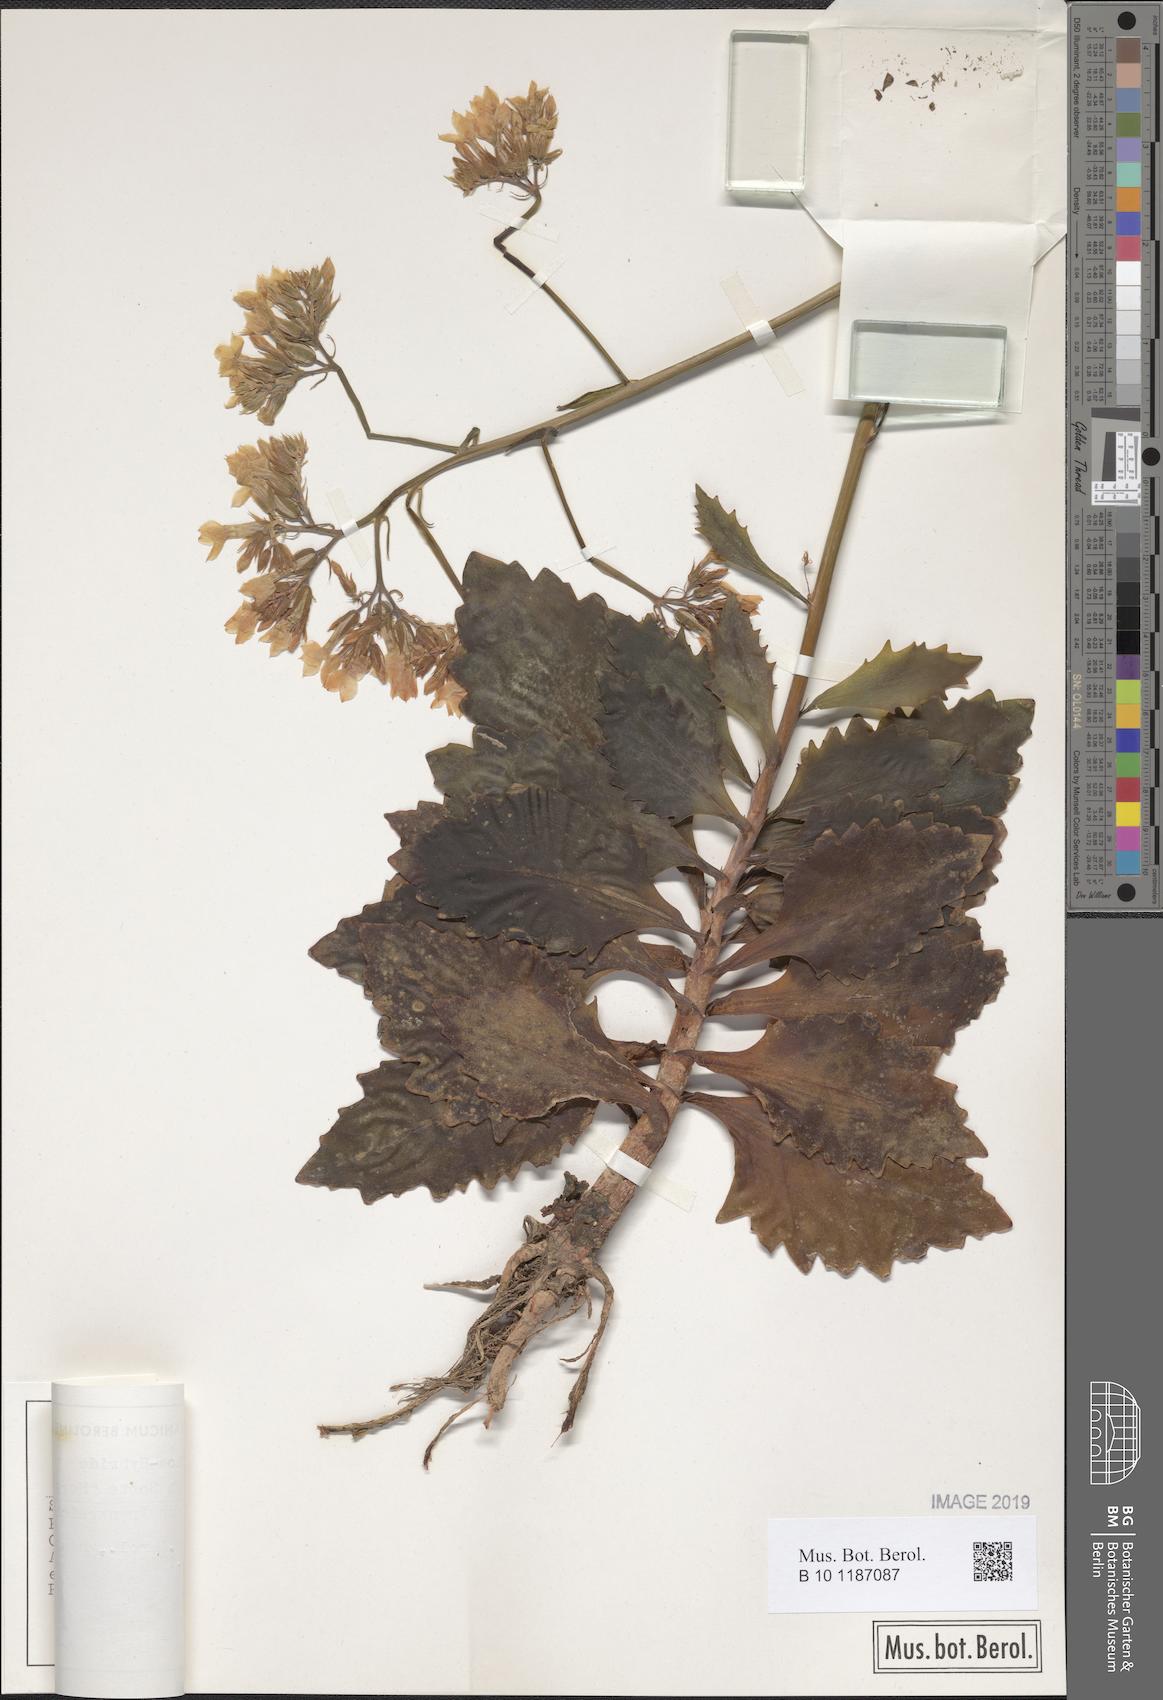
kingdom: Plantae
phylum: Tracheophyta
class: Magnoliopsida
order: Saxifragales
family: Crassulaceae
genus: Kalanchoe
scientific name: Kalanchoe
